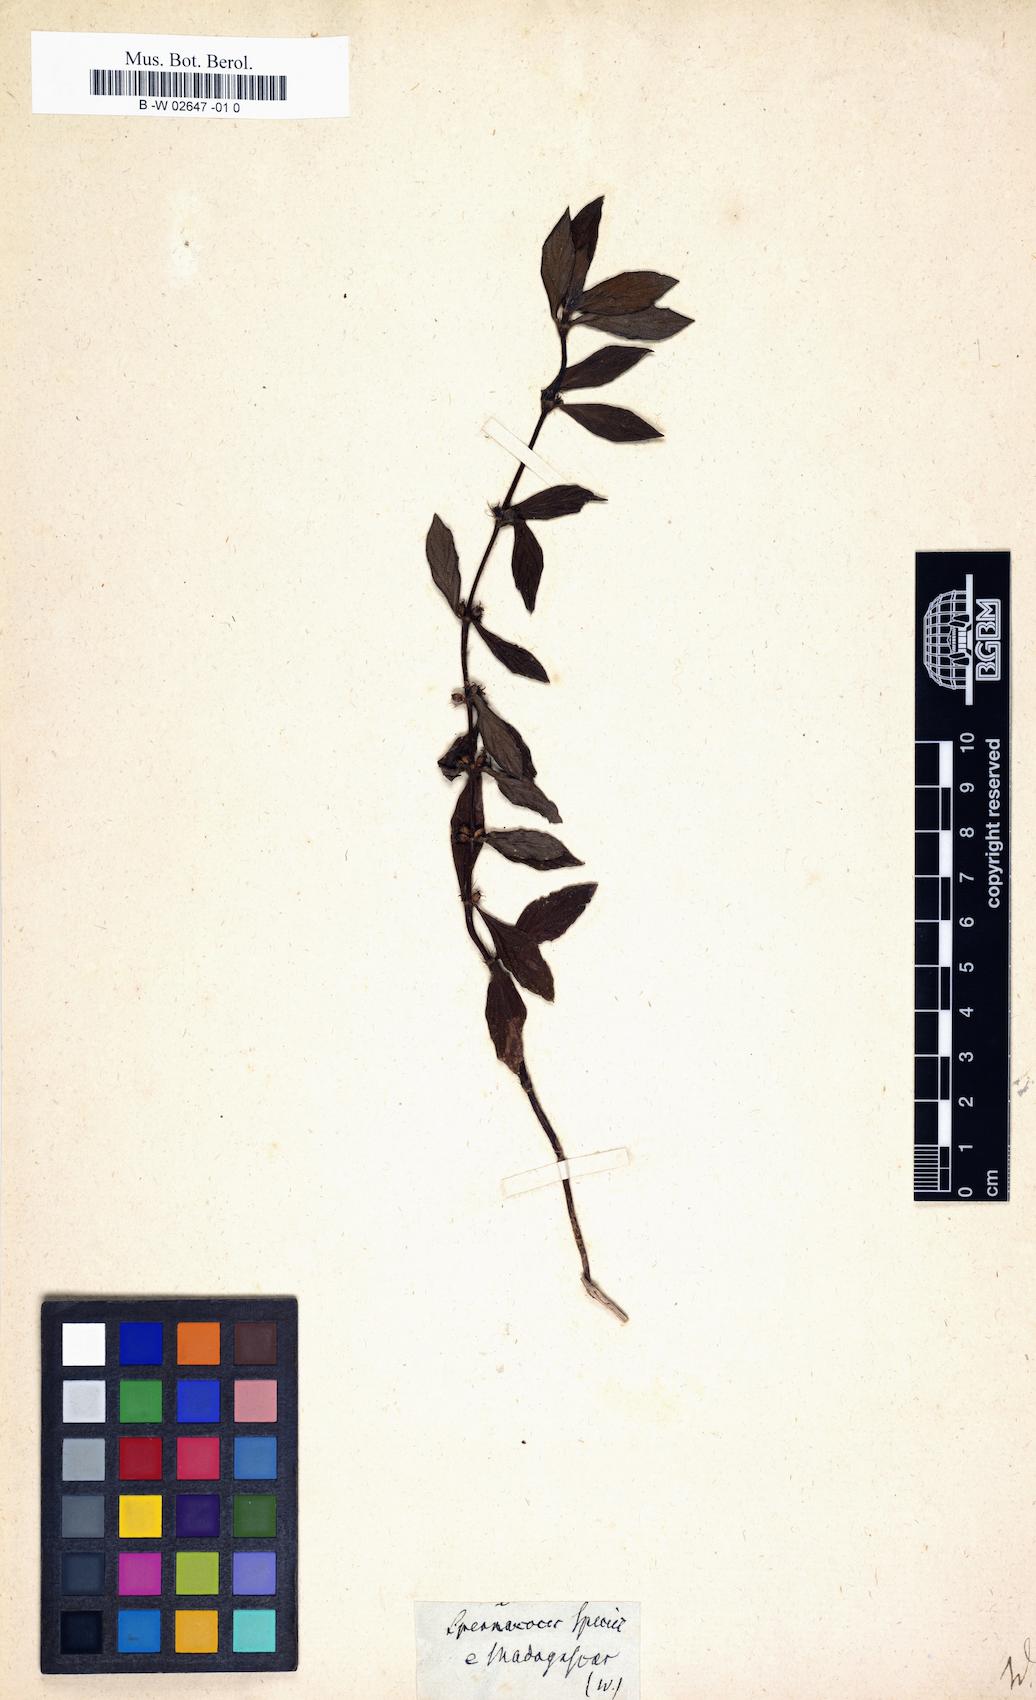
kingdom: Plantae
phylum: Tracheophyta
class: Magnoliopsida
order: Gentianales
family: Rubiaceae
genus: Spermacoce
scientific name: Spermacoce
